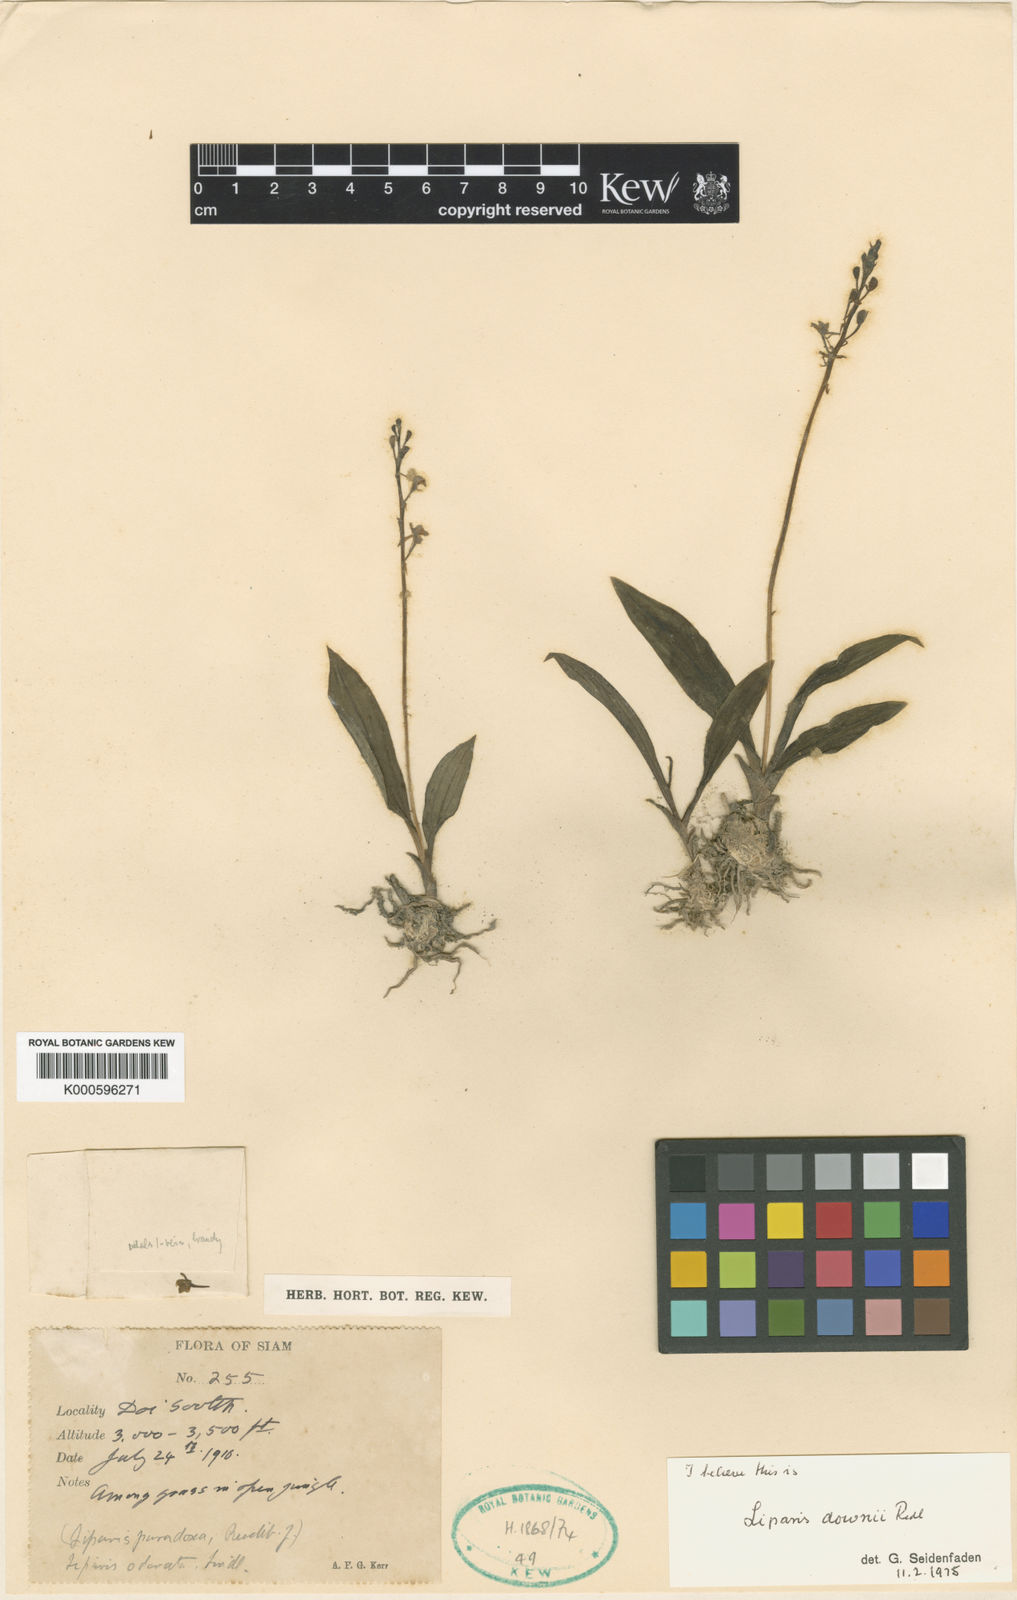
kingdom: Plantae
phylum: Tracheophyta
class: Liliopsida
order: Asparagales
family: Orchidaceae
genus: Liparis
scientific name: Liparis odorata
